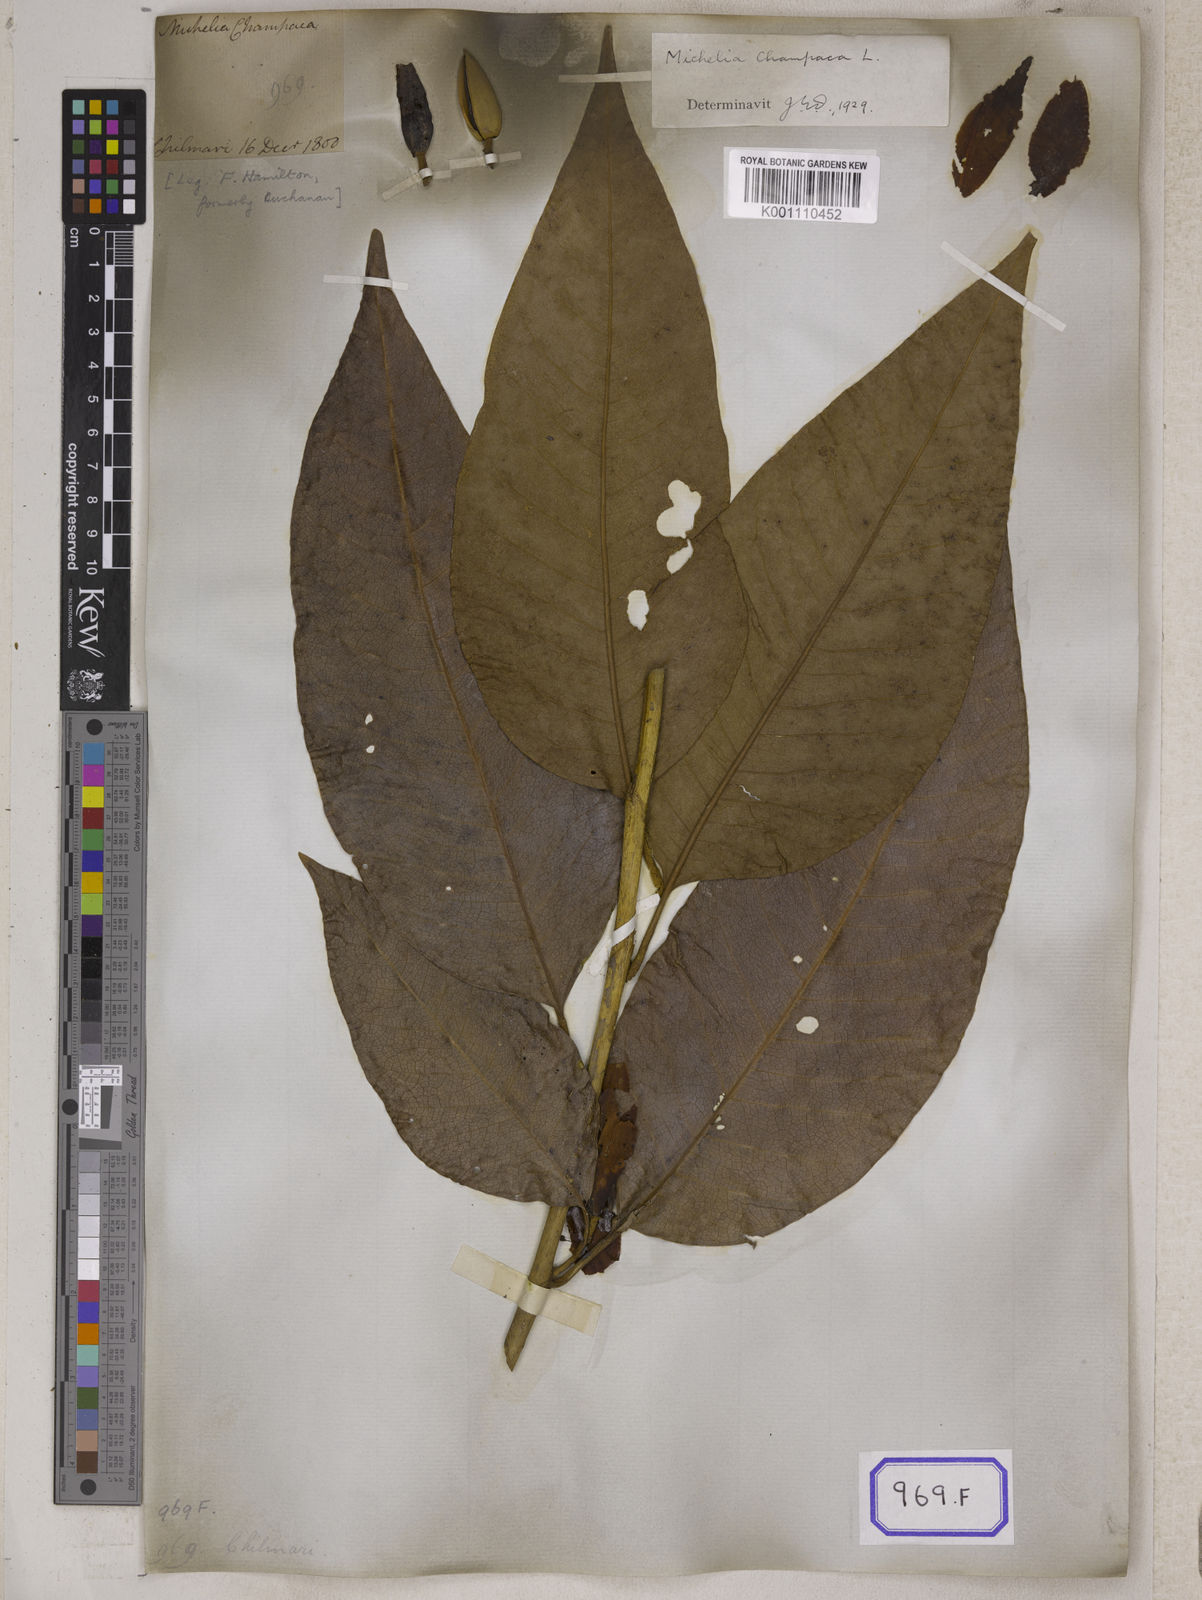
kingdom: Plantae
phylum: Tracheophyta
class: Magnoliopsida
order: Magnoliales
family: Magnoliaceae
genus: Magnolia
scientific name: Magnolia champaca
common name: Champak
